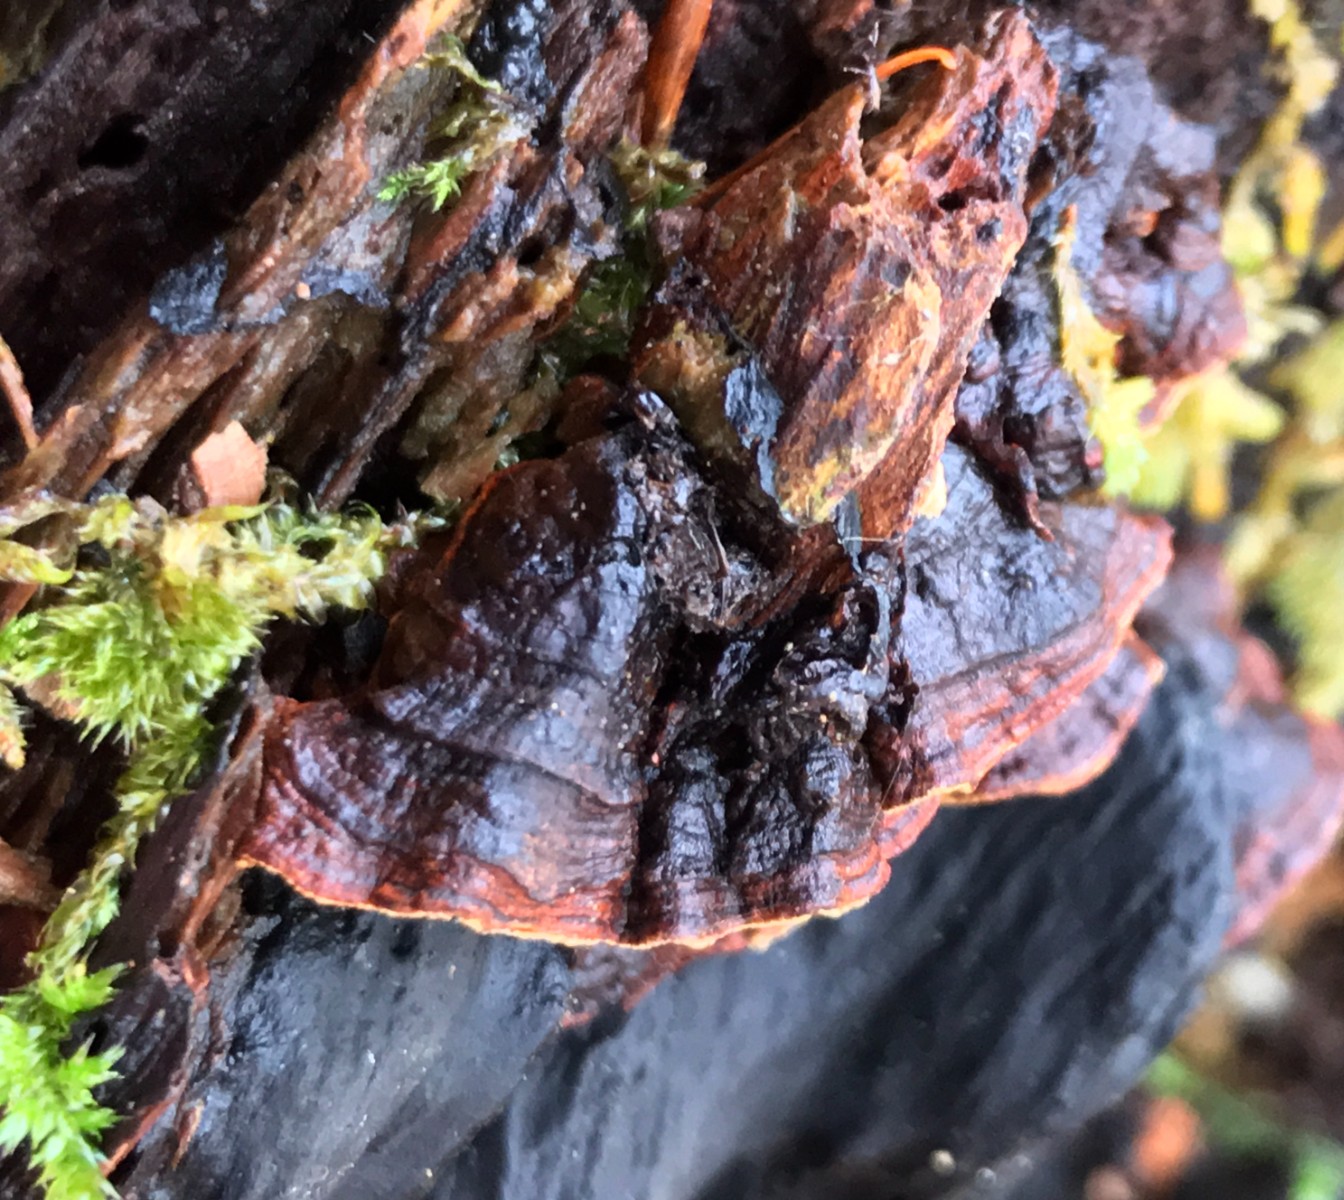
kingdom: Fungi
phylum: Basidiomycota
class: Agaricomycetes
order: Hymenochaetales
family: Hymenochaetaceae
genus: Hymenochaete
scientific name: Hymenochaete rubiginosa
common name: stiv ruslædersvamp
